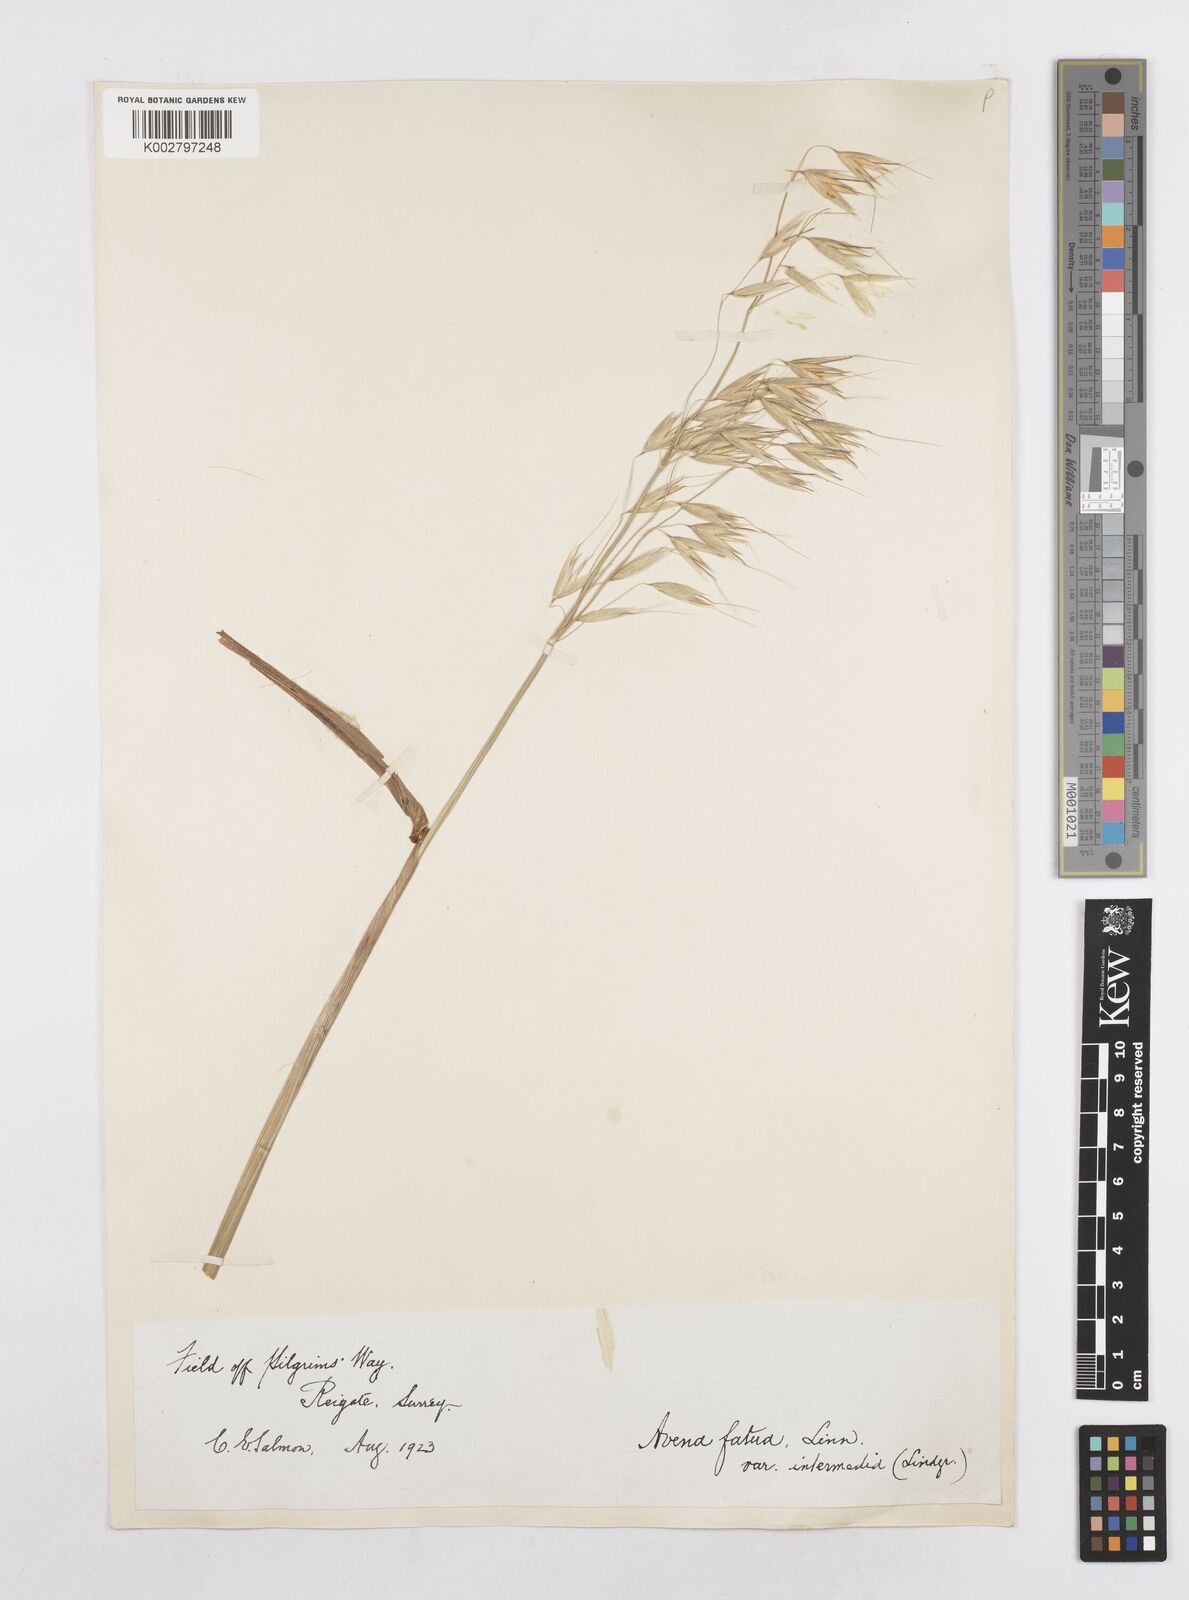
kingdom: Plantae
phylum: Tracheophyta
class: Liliopsida
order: Poales
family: Poaceae
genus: Avena
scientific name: Avena fatua
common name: Wild oat
